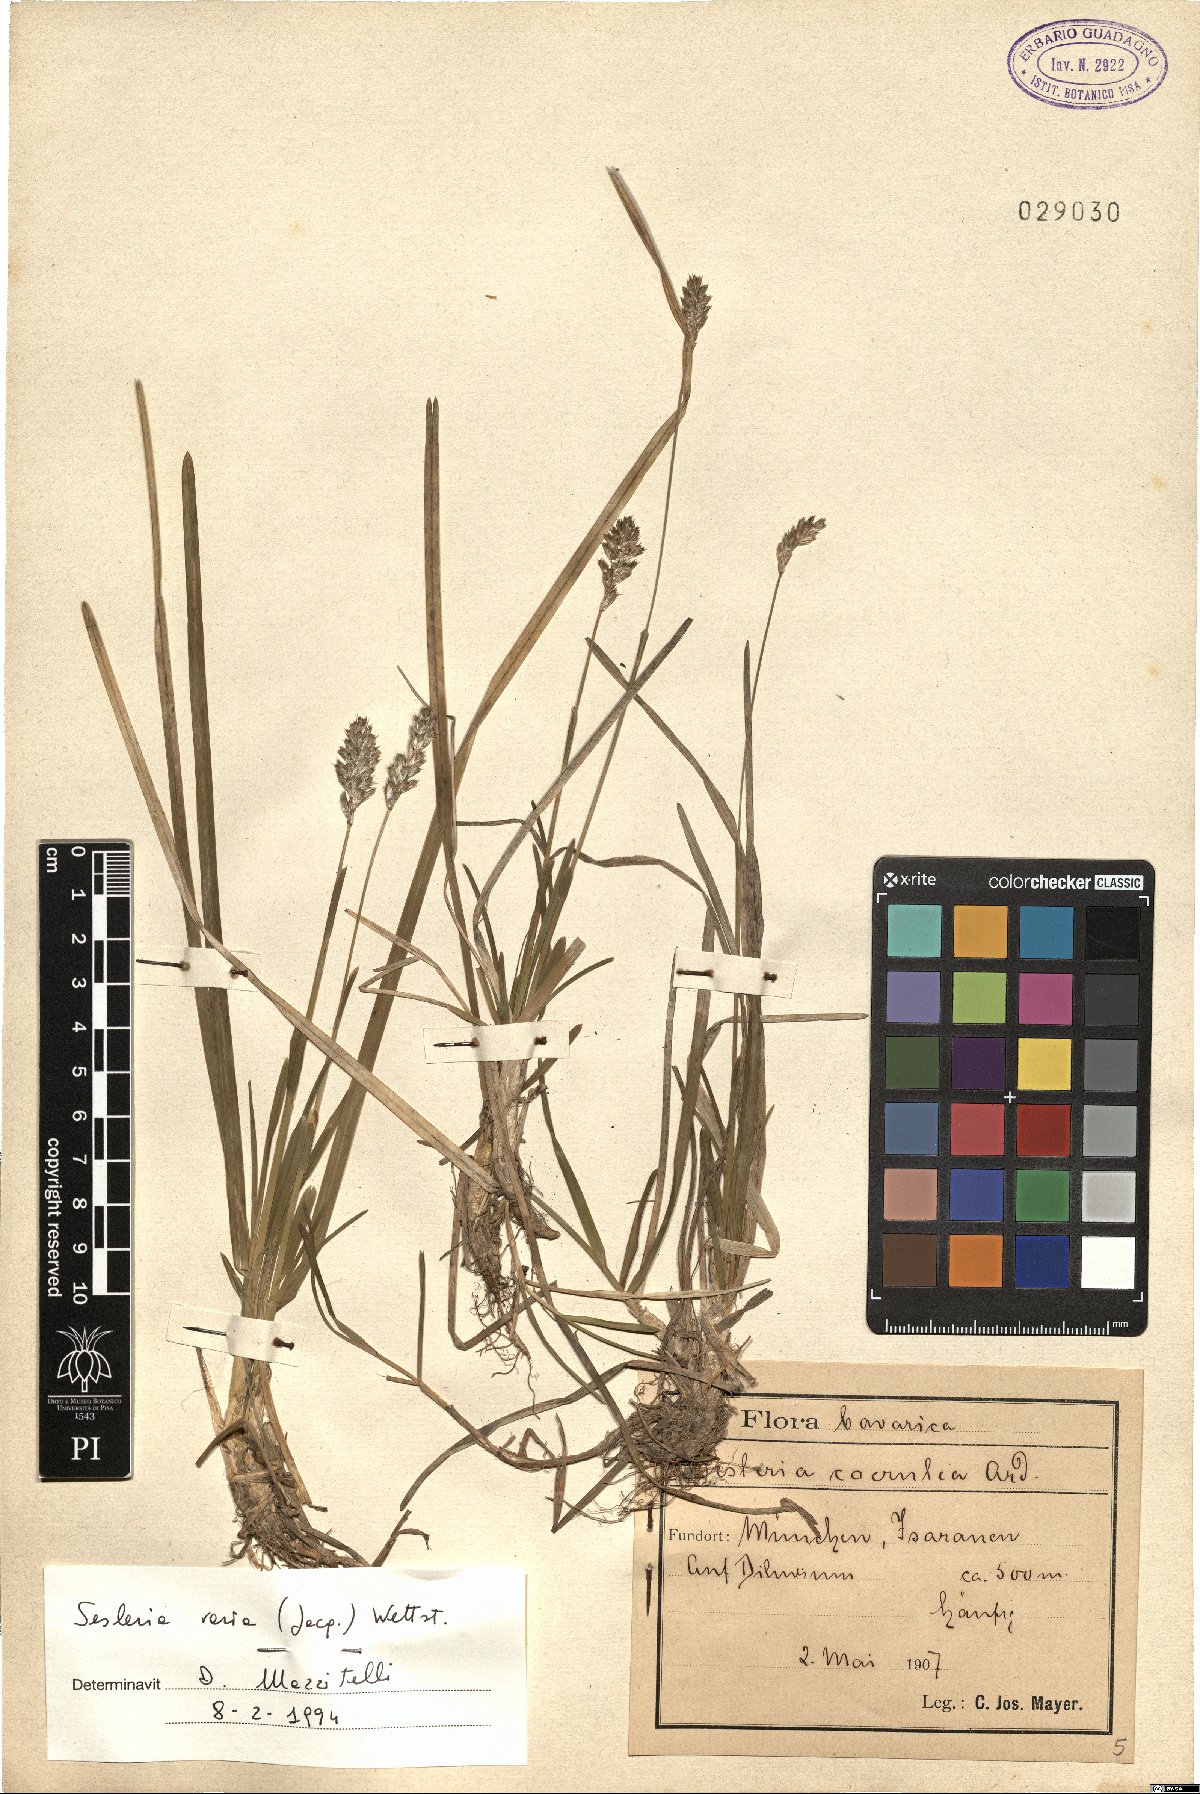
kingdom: Plantae
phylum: Tracheophyta
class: Liliopsida
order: Poales
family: Poaceae
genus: Sesleria
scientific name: Sesleria caerulea
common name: Blue moor-grass
